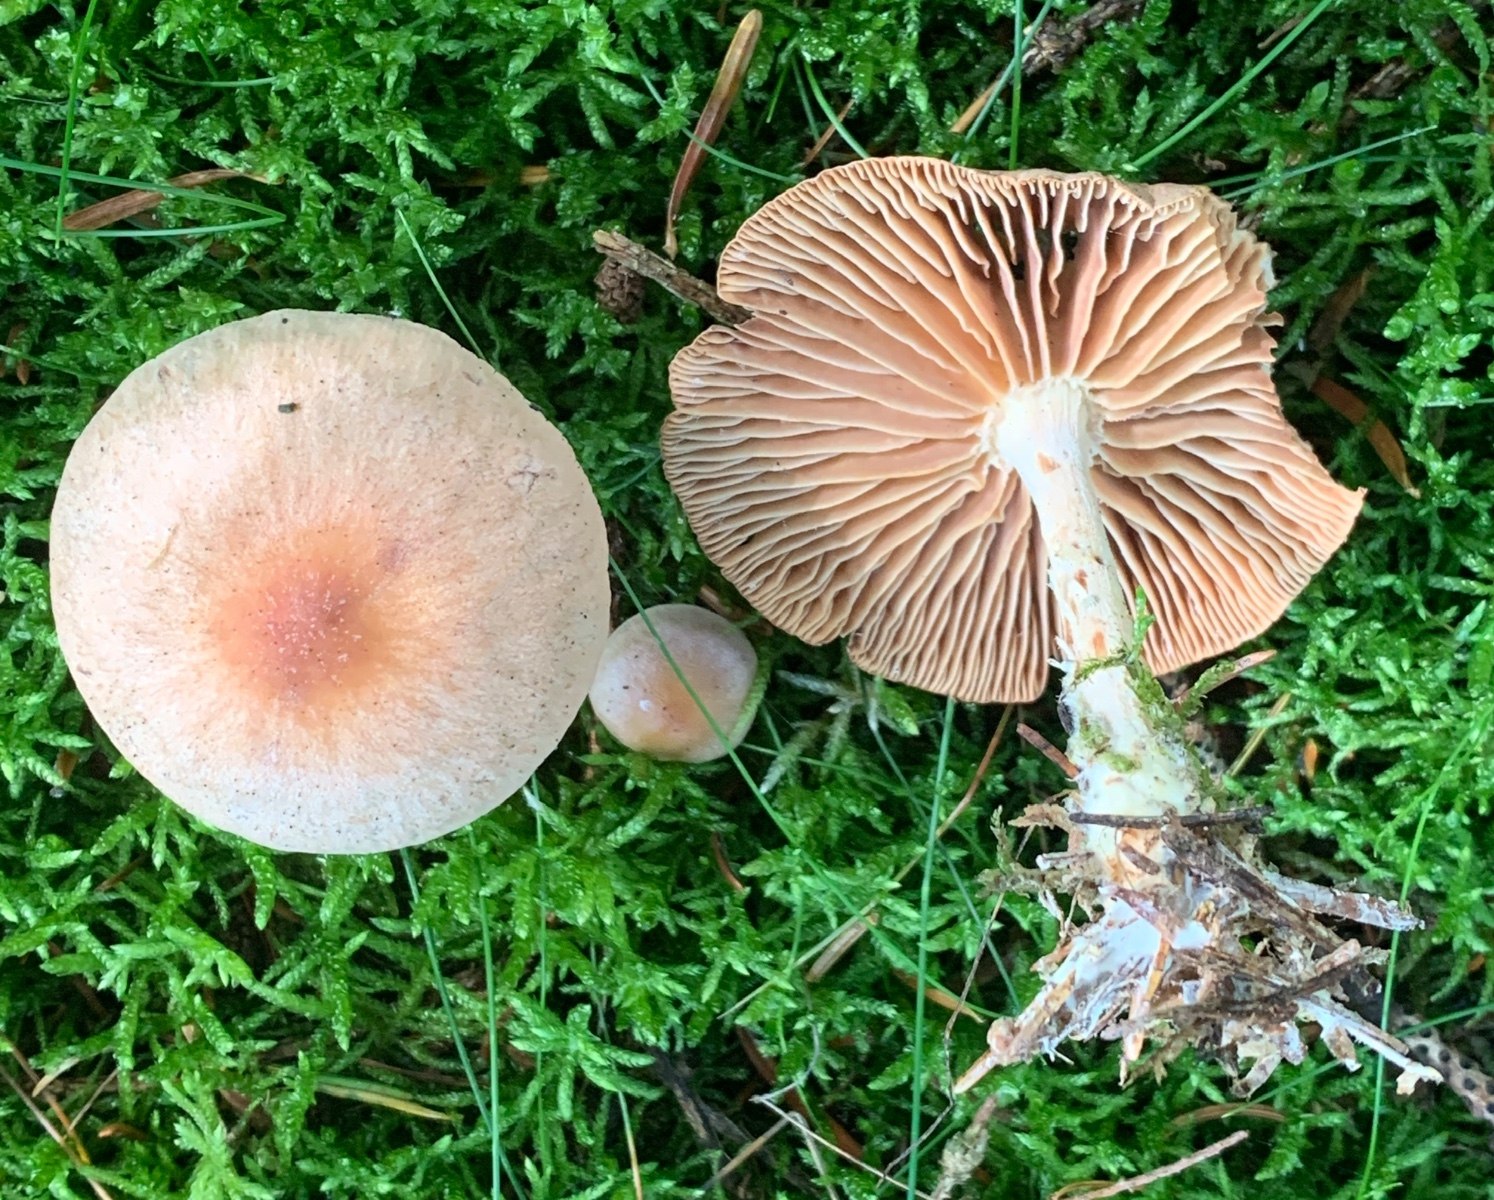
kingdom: Fungi
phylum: Basidiomycota
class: Agaricomycetes
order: Agaricales
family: Omphalotaceae
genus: Collybiopsis
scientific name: Collybiopsis peronata
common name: bestøvlet fladhat
